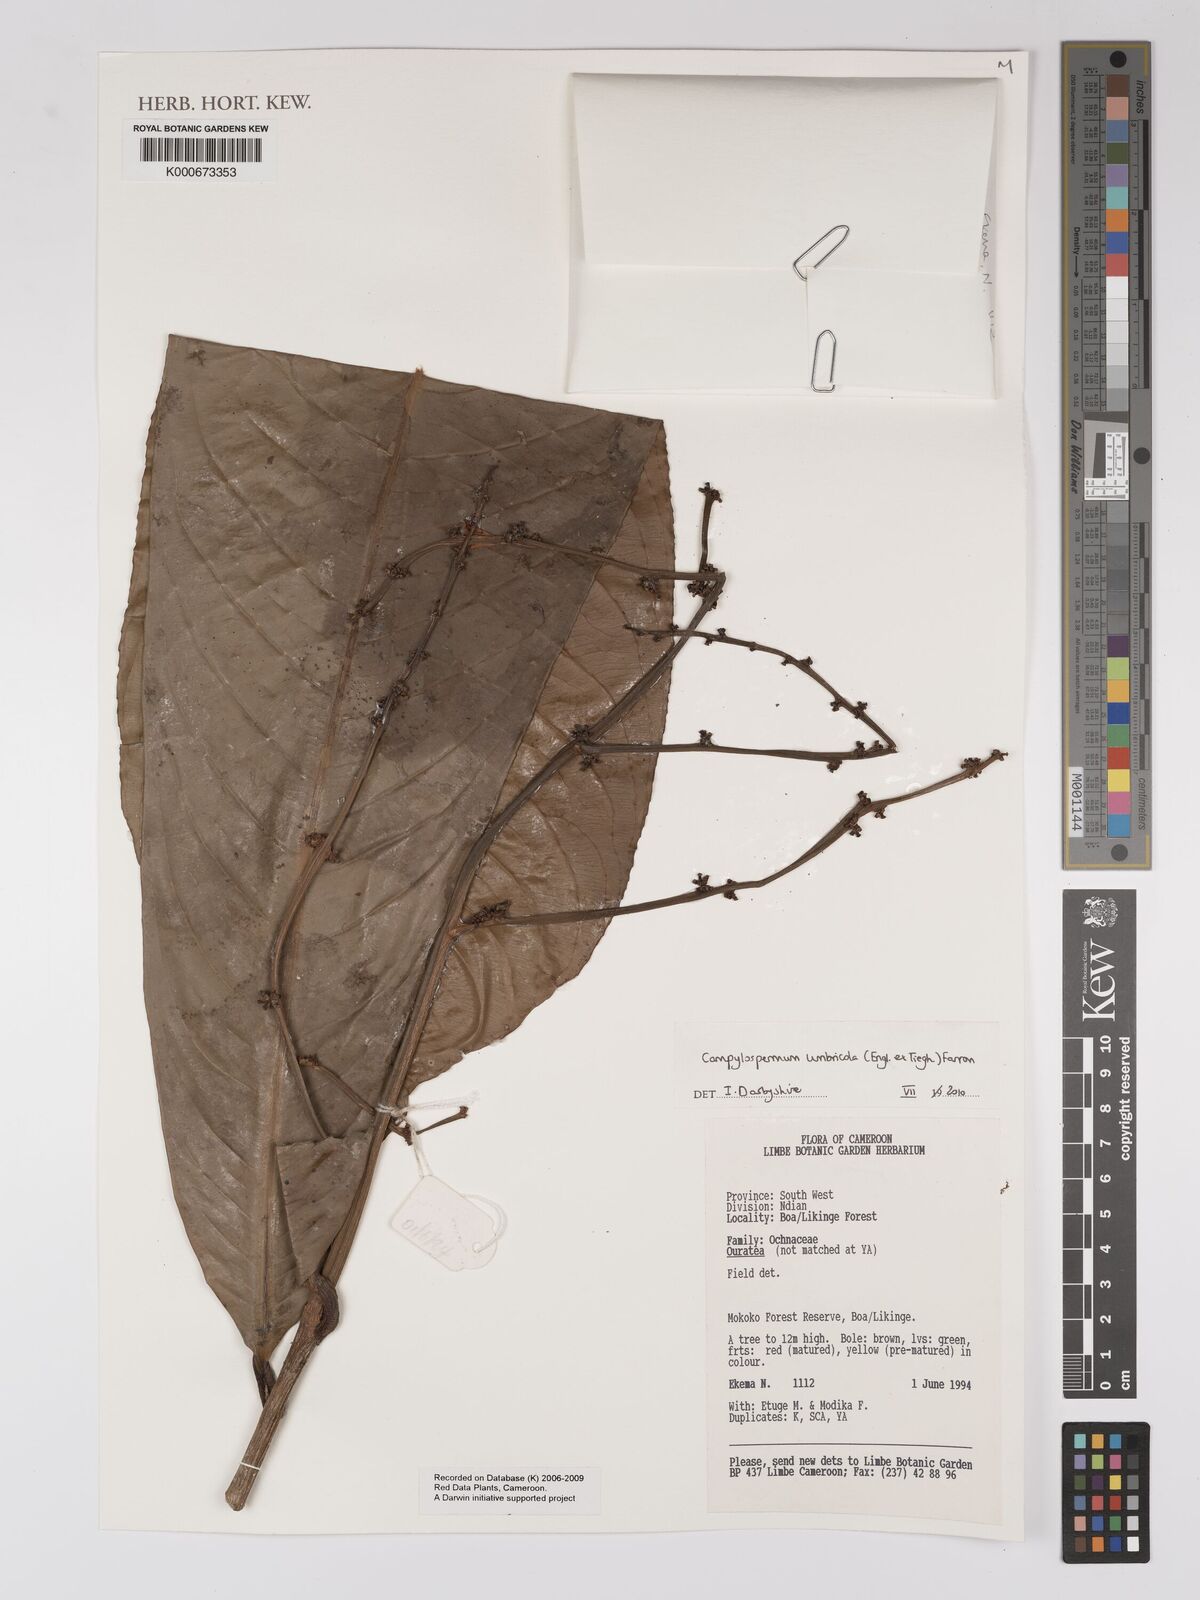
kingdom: Plantae
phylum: Tracheophyta
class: Magnoliopsida
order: Malpighiales
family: Ochnaceae
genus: Campylospermum
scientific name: Campylospermum umbricola
